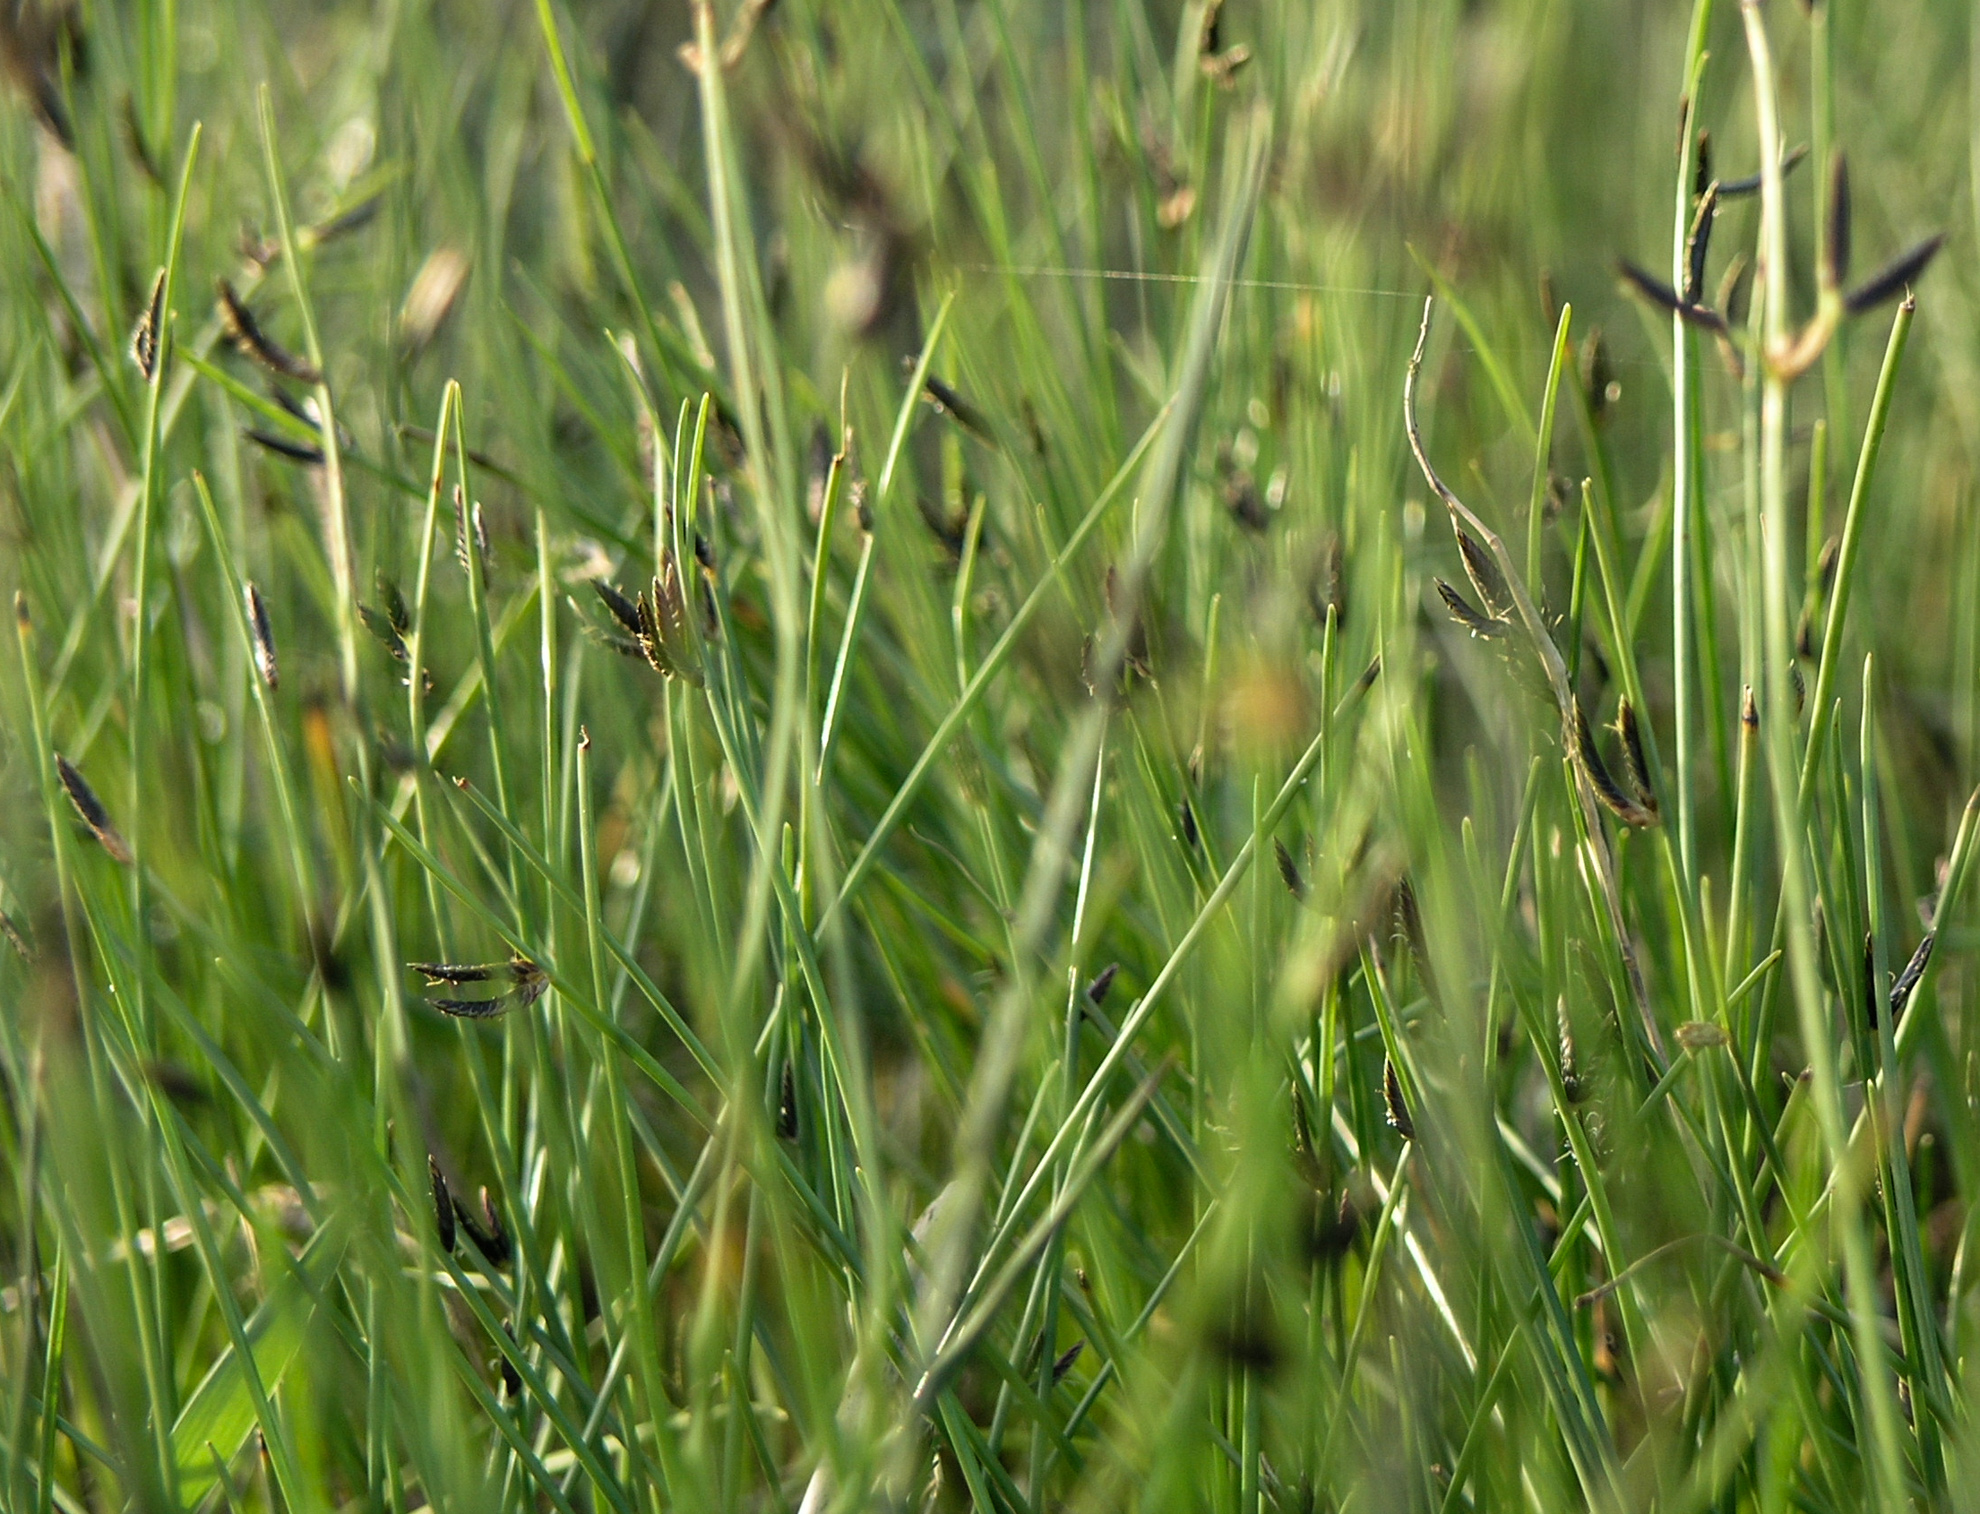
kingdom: Plantae
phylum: Tracheophyta
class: Liliopsida
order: Poales
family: Cyperaceae
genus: Cyperus
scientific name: Cyperus laevigatus
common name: Smooth flat sedge
